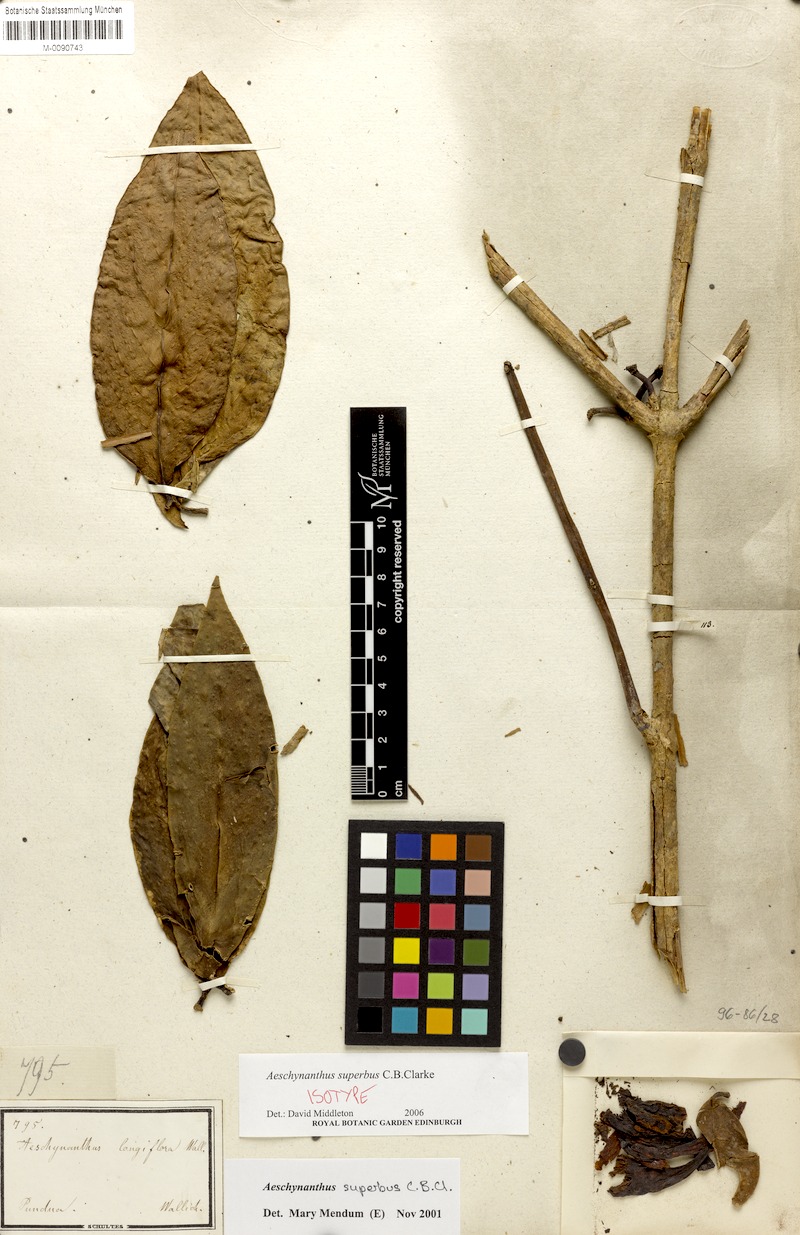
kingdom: Plantae
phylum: Tracheophyta
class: Magnoliopsida
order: Lamiales
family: Gesneriaceae
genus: Aeschynanthus
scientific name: Aeschynanthus superbus
